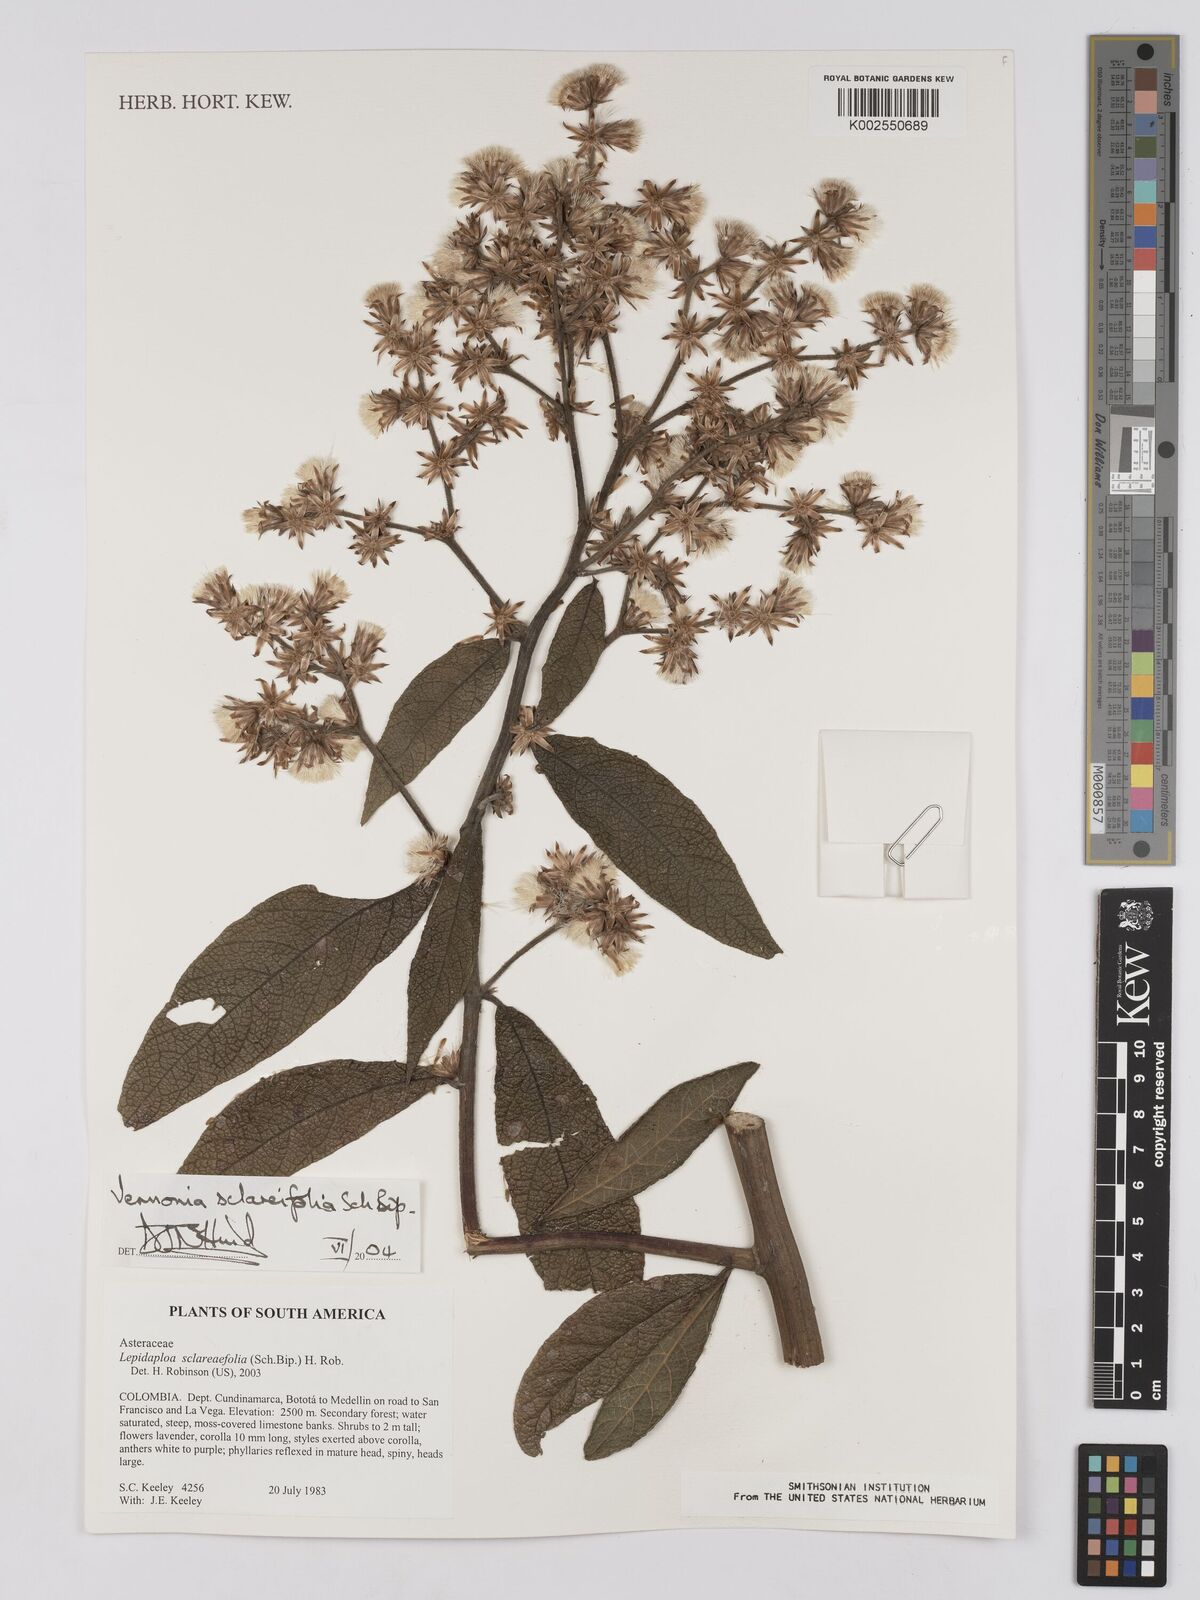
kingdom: Plantae
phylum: Tracheophyta
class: Magnoliopsida
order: Asterales
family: Asteraceae
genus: Lepidaploa
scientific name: Lepidaploa sclareifolia
